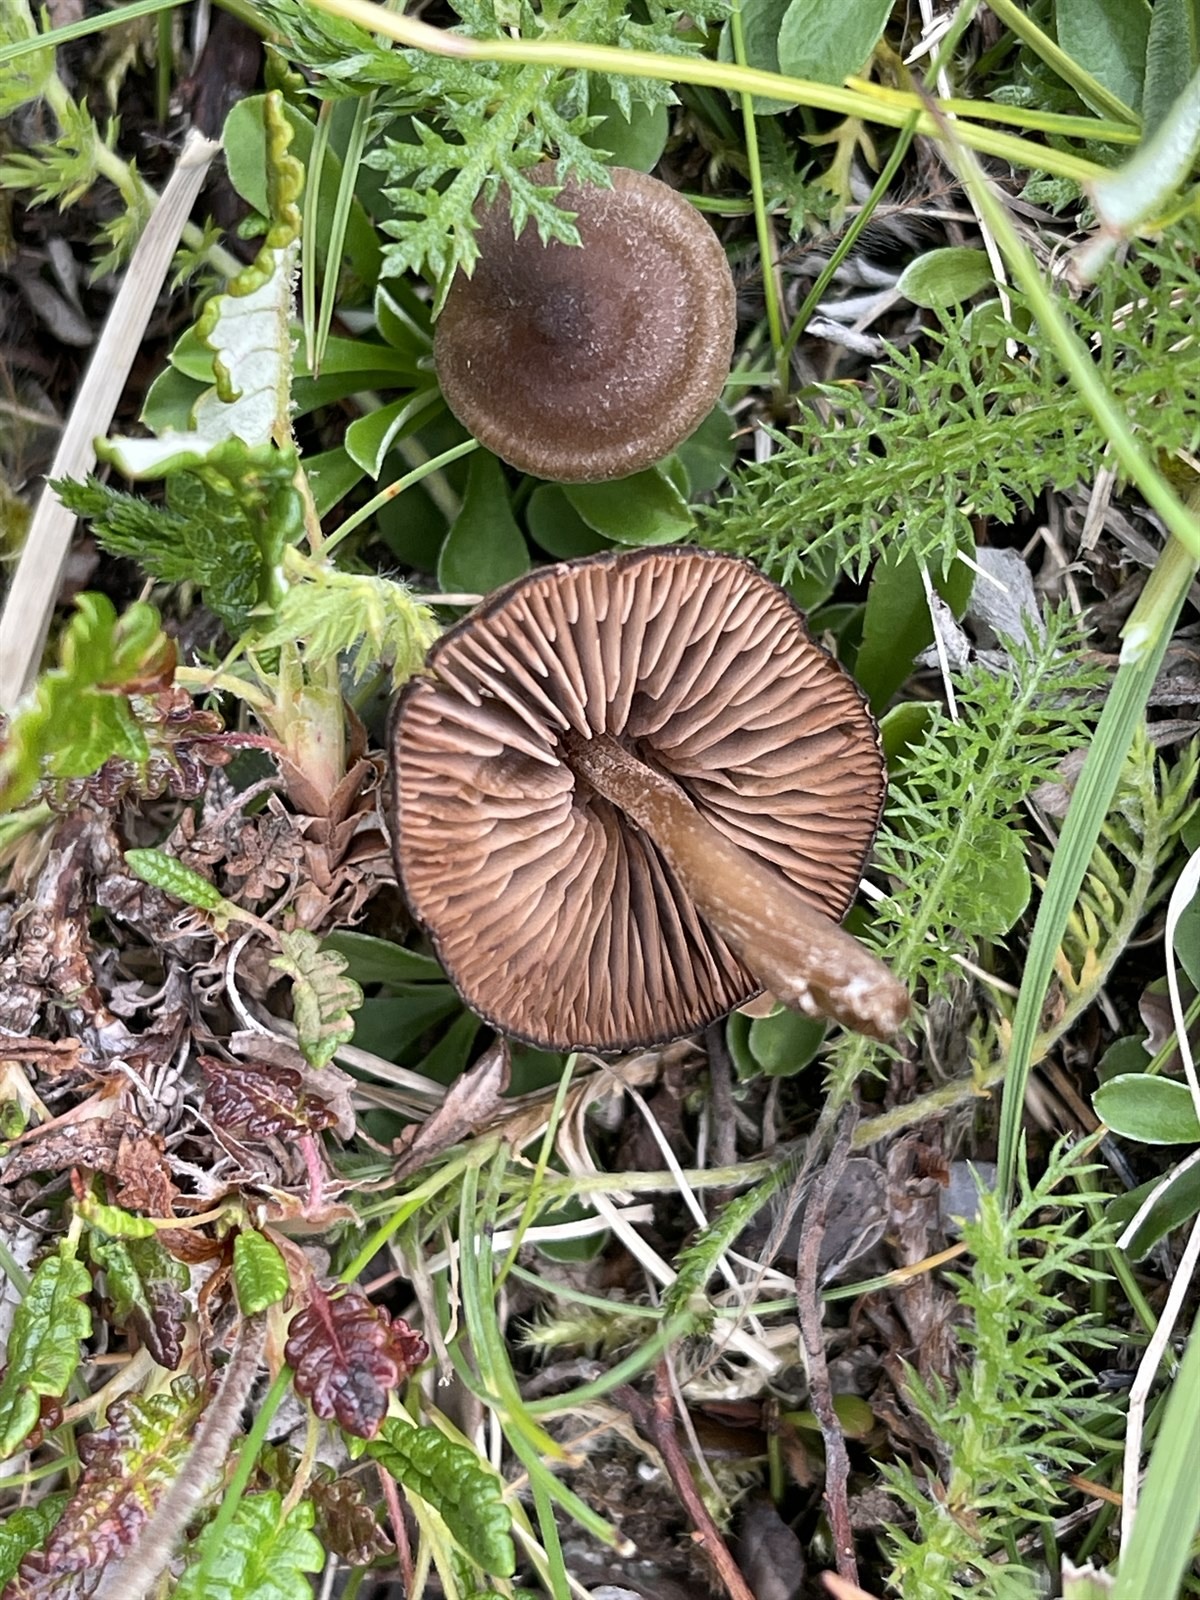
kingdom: Fungi
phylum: Basidiomycota
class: Agaricomycetes
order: Agaricales
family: Entolomataceae
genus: Entoloma
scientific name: Entoloma clandestinum
